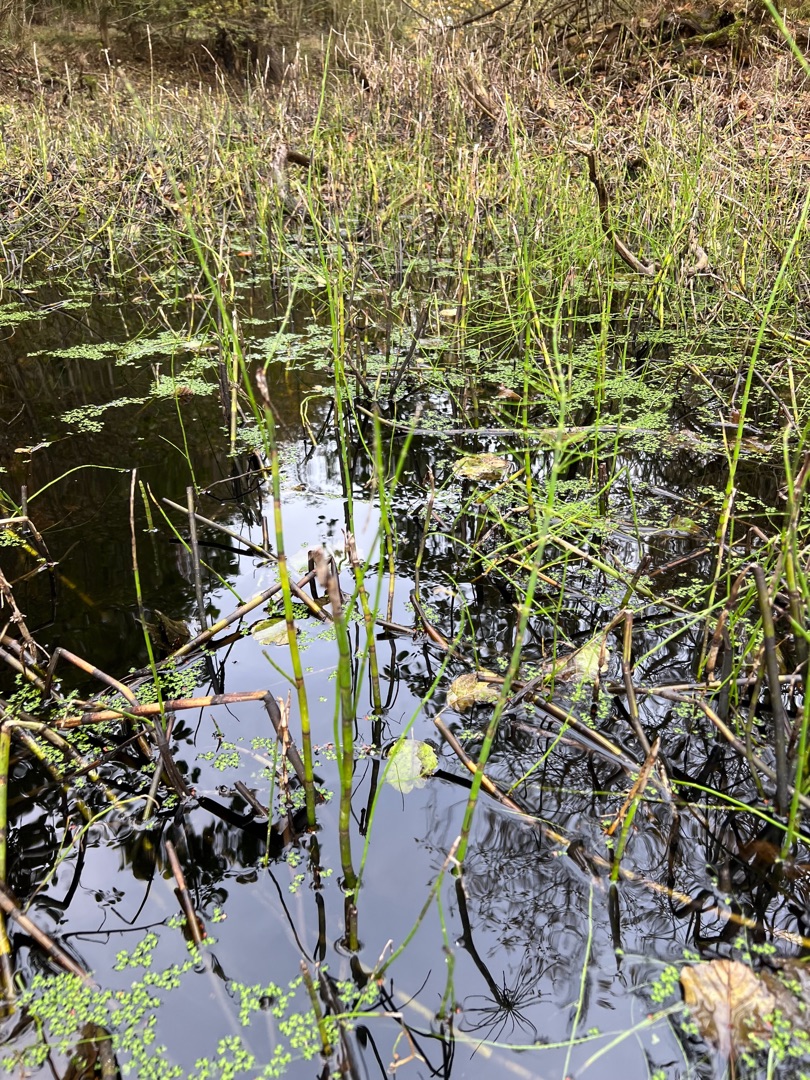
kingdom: Plantae
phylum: Tracheophyta
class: Polypodiopsida
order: Equisetales
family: Equisetaceae
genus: Equisetum
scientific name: Equisetum fluviatile
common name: Dynd-padderok
